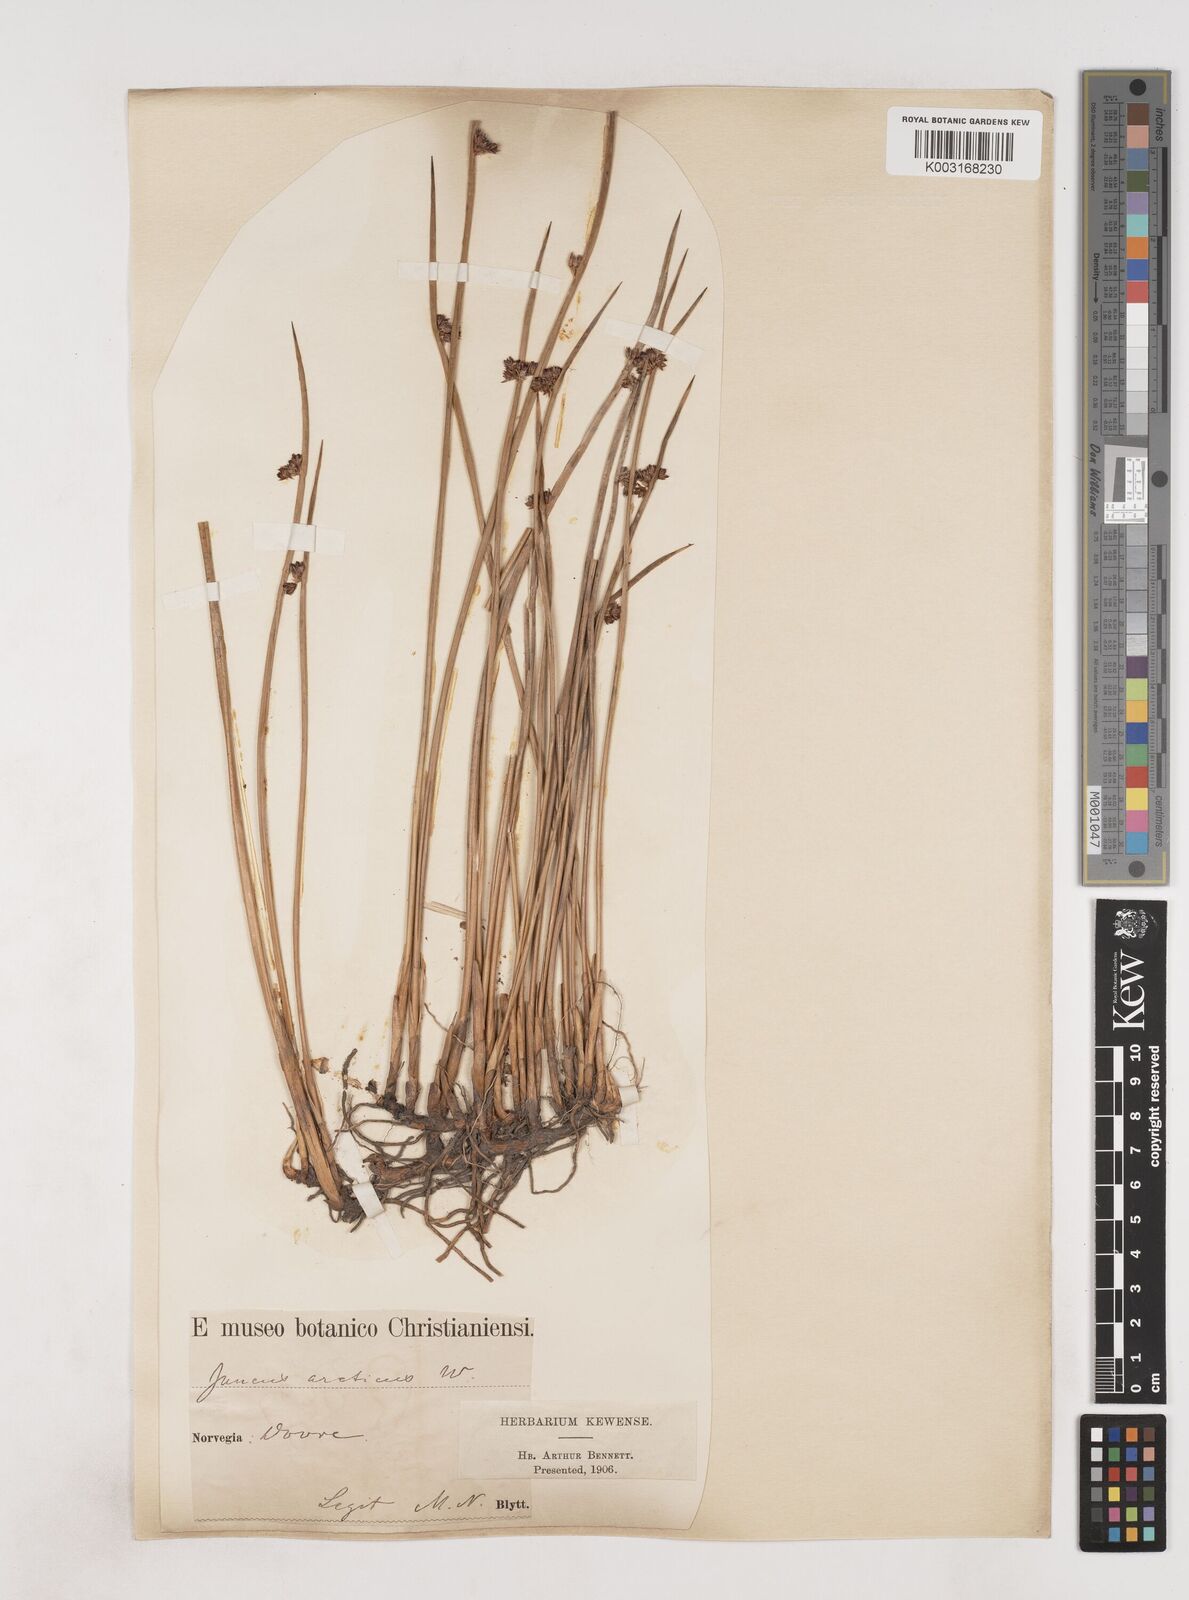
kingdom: Plantae
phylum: Tracheophyta
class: Liliopsida
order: Poales
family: Juncaceae
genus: Juncus
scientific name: Juncus arcticus
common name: Arctic rush
